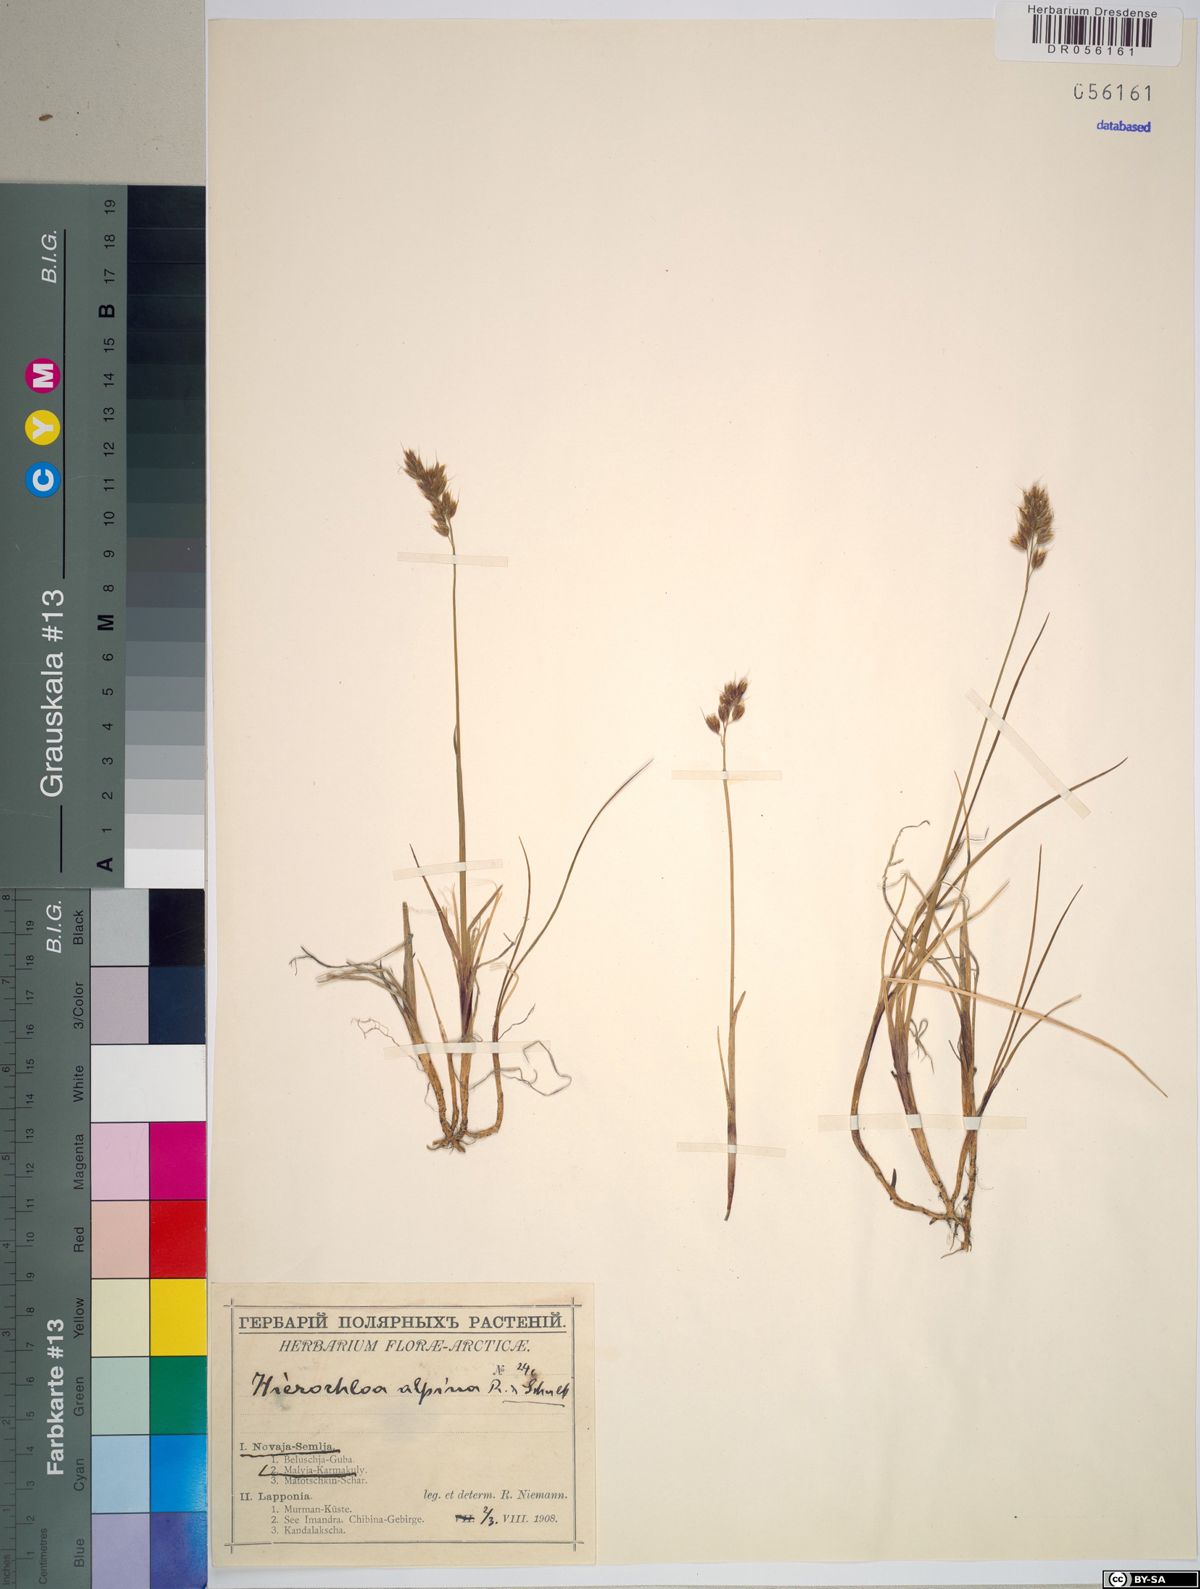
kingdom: Plantae
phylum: Tracheophyta
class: Liliopsida
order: Poales
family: Poaceae
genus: Anthoxanthum
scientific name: Anthoxanthum monticola
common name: Alpine sweetgrass
